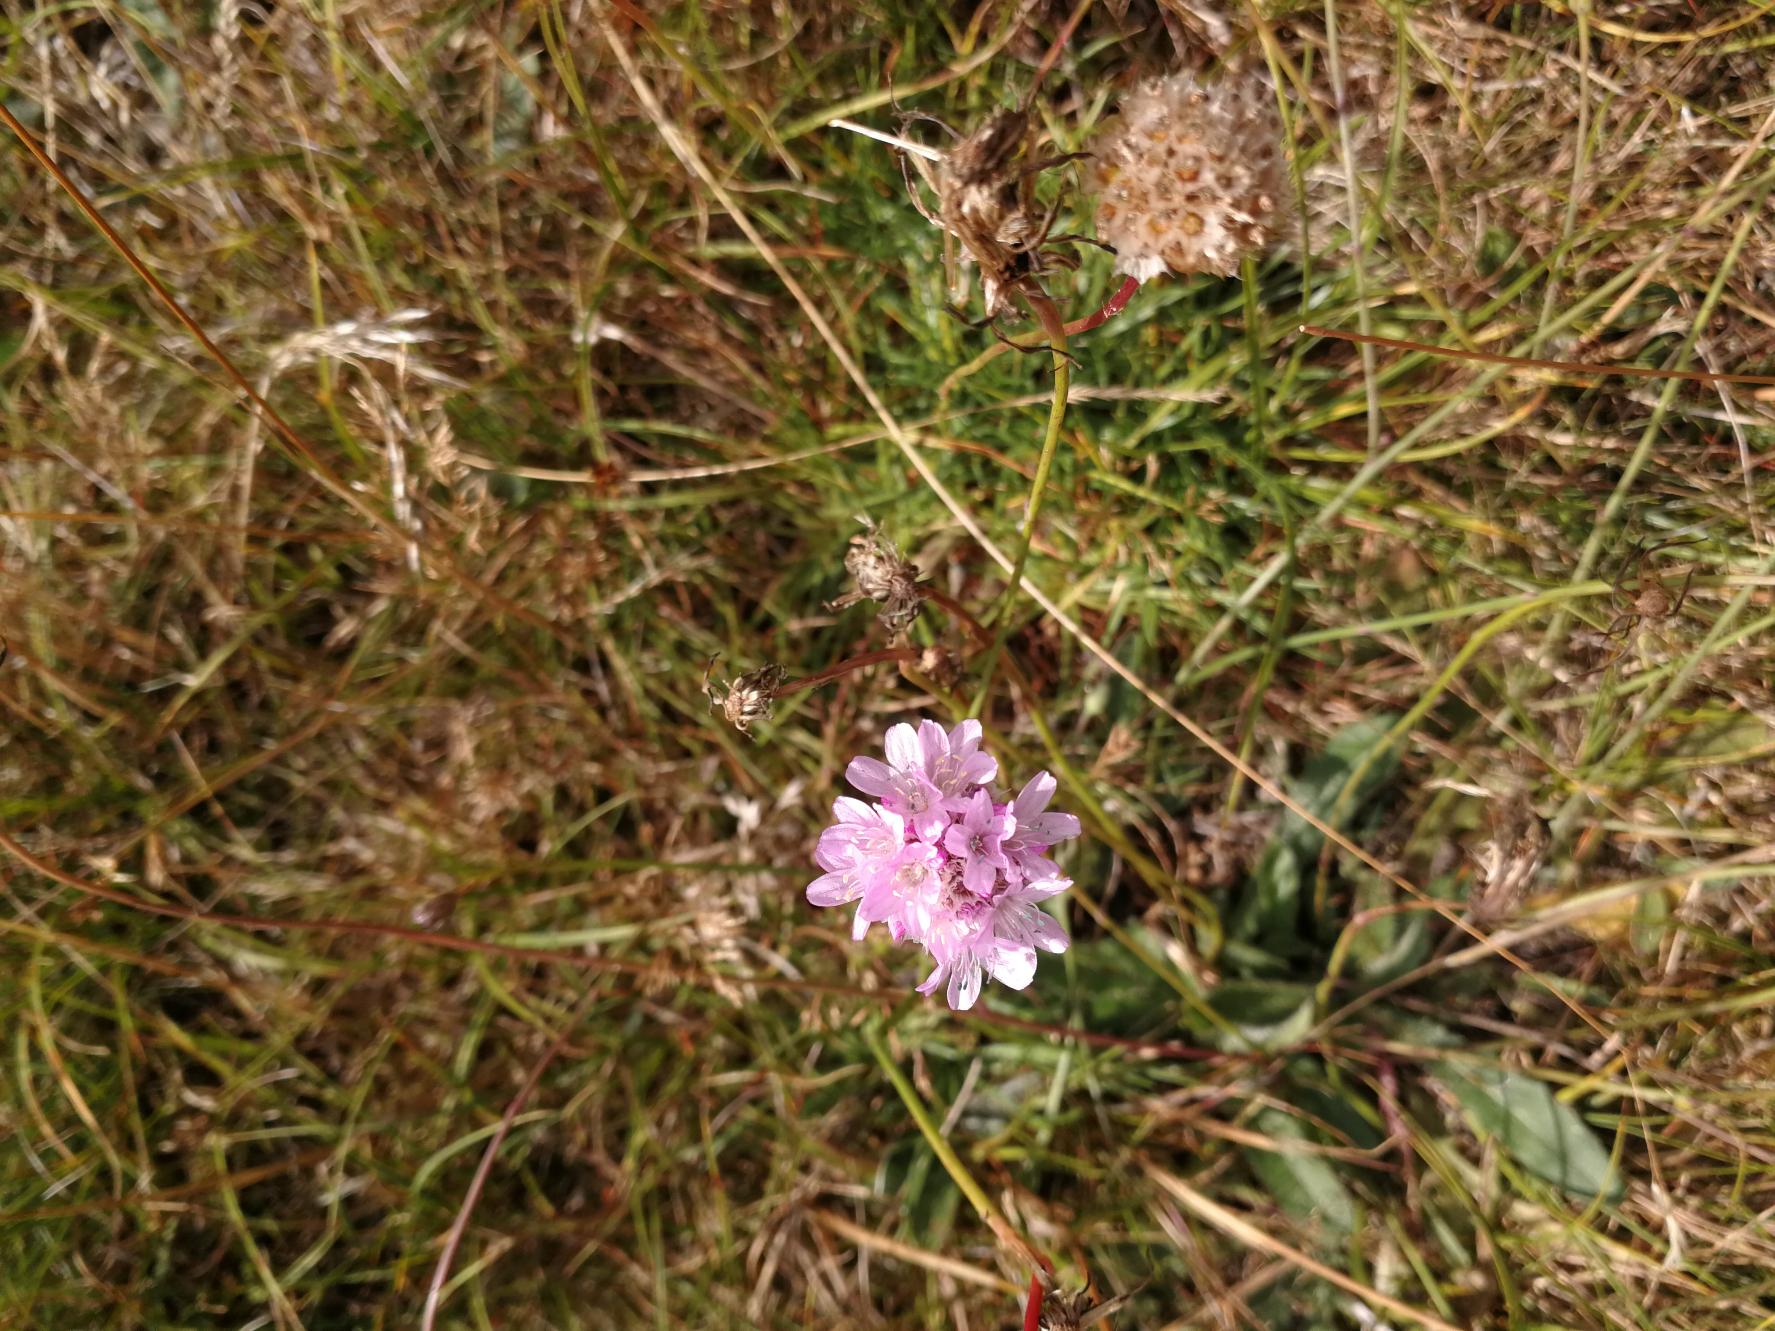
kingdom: Plantae
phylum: Tracheophyta
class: Magnoliopsida
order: Caryophyllales
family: Plumbaginaceae
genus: Armeria
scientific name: Armeria maritima
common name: Engelskgræs
